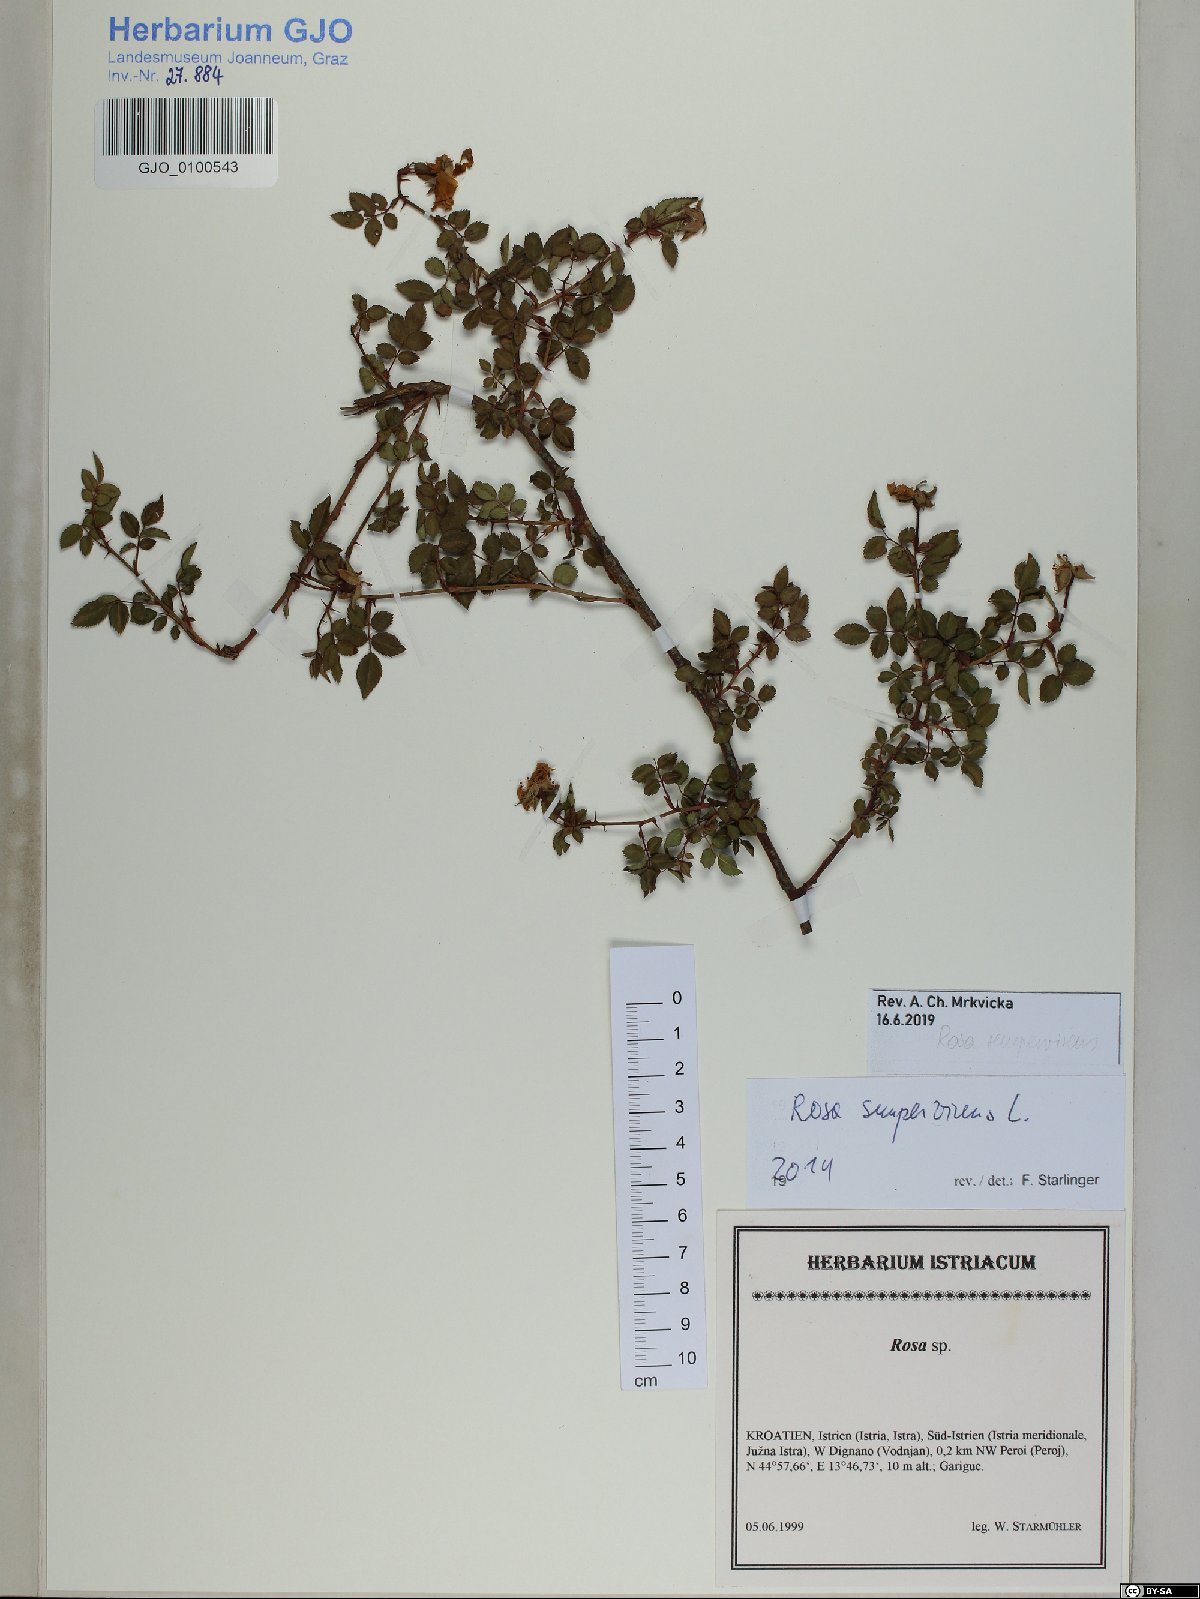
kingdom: Plantae
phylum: Tracheophyta
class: Magnoliopsida
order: Rosales
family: Rosaceae
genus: Rosa
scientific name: Rosa sempervirens
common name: Evergreen rose
